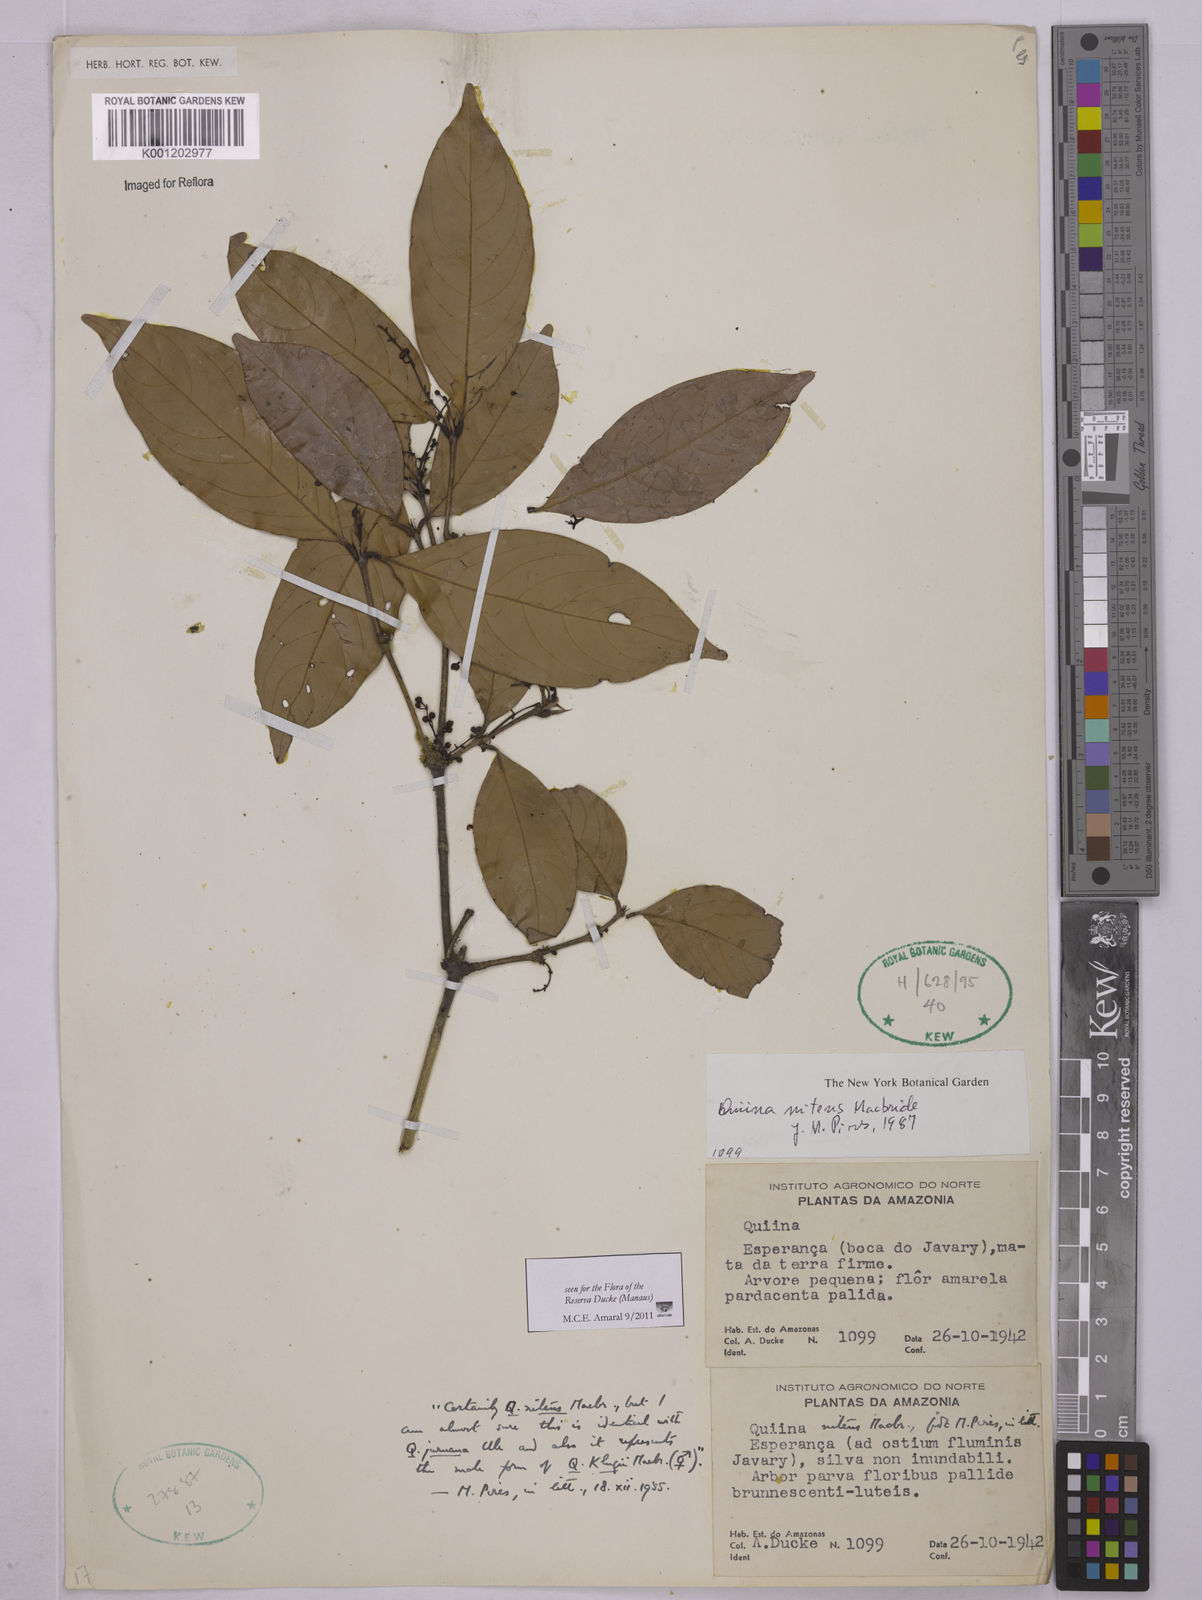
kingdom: Plantae
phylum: Tracheophyta
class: Magnoliopsida
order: Malpighiales
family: Quiinaceae
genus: Quiina
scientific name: Quiina florida
